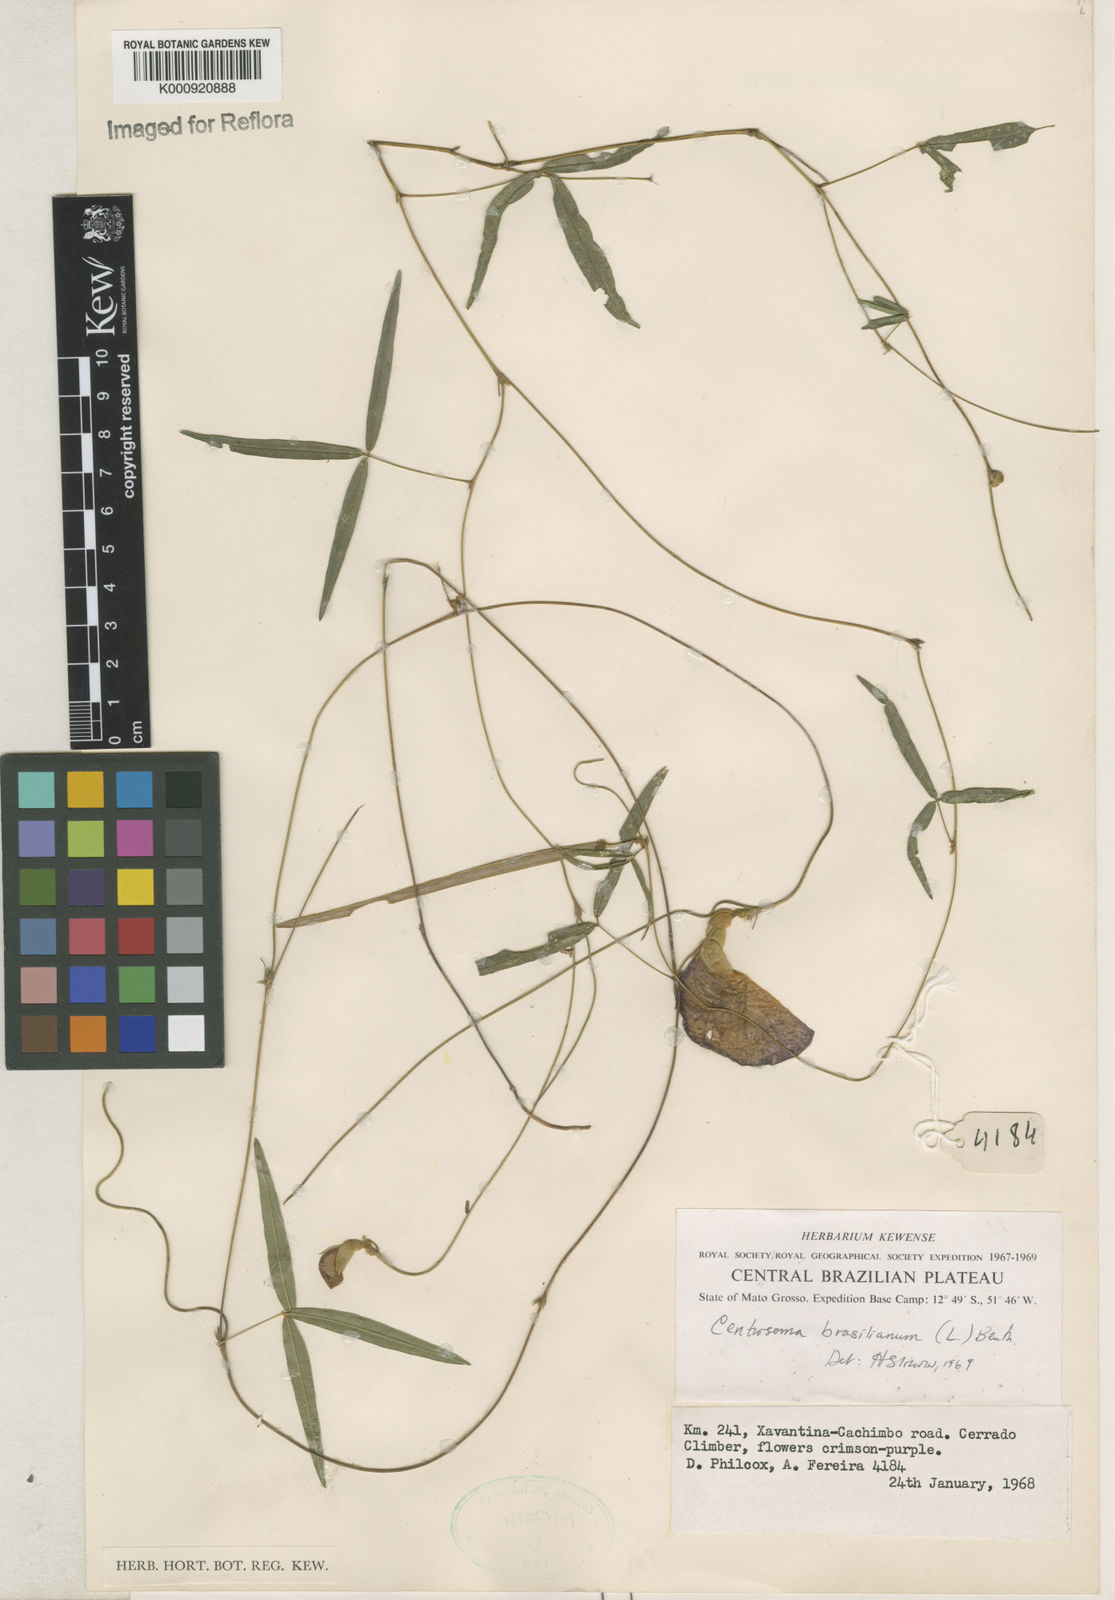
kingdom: Plantae
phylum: Tracheophyta
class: Magnoliopsida
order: Fabales
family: Fabaceae
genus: Centrosema
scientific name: Centrosema
